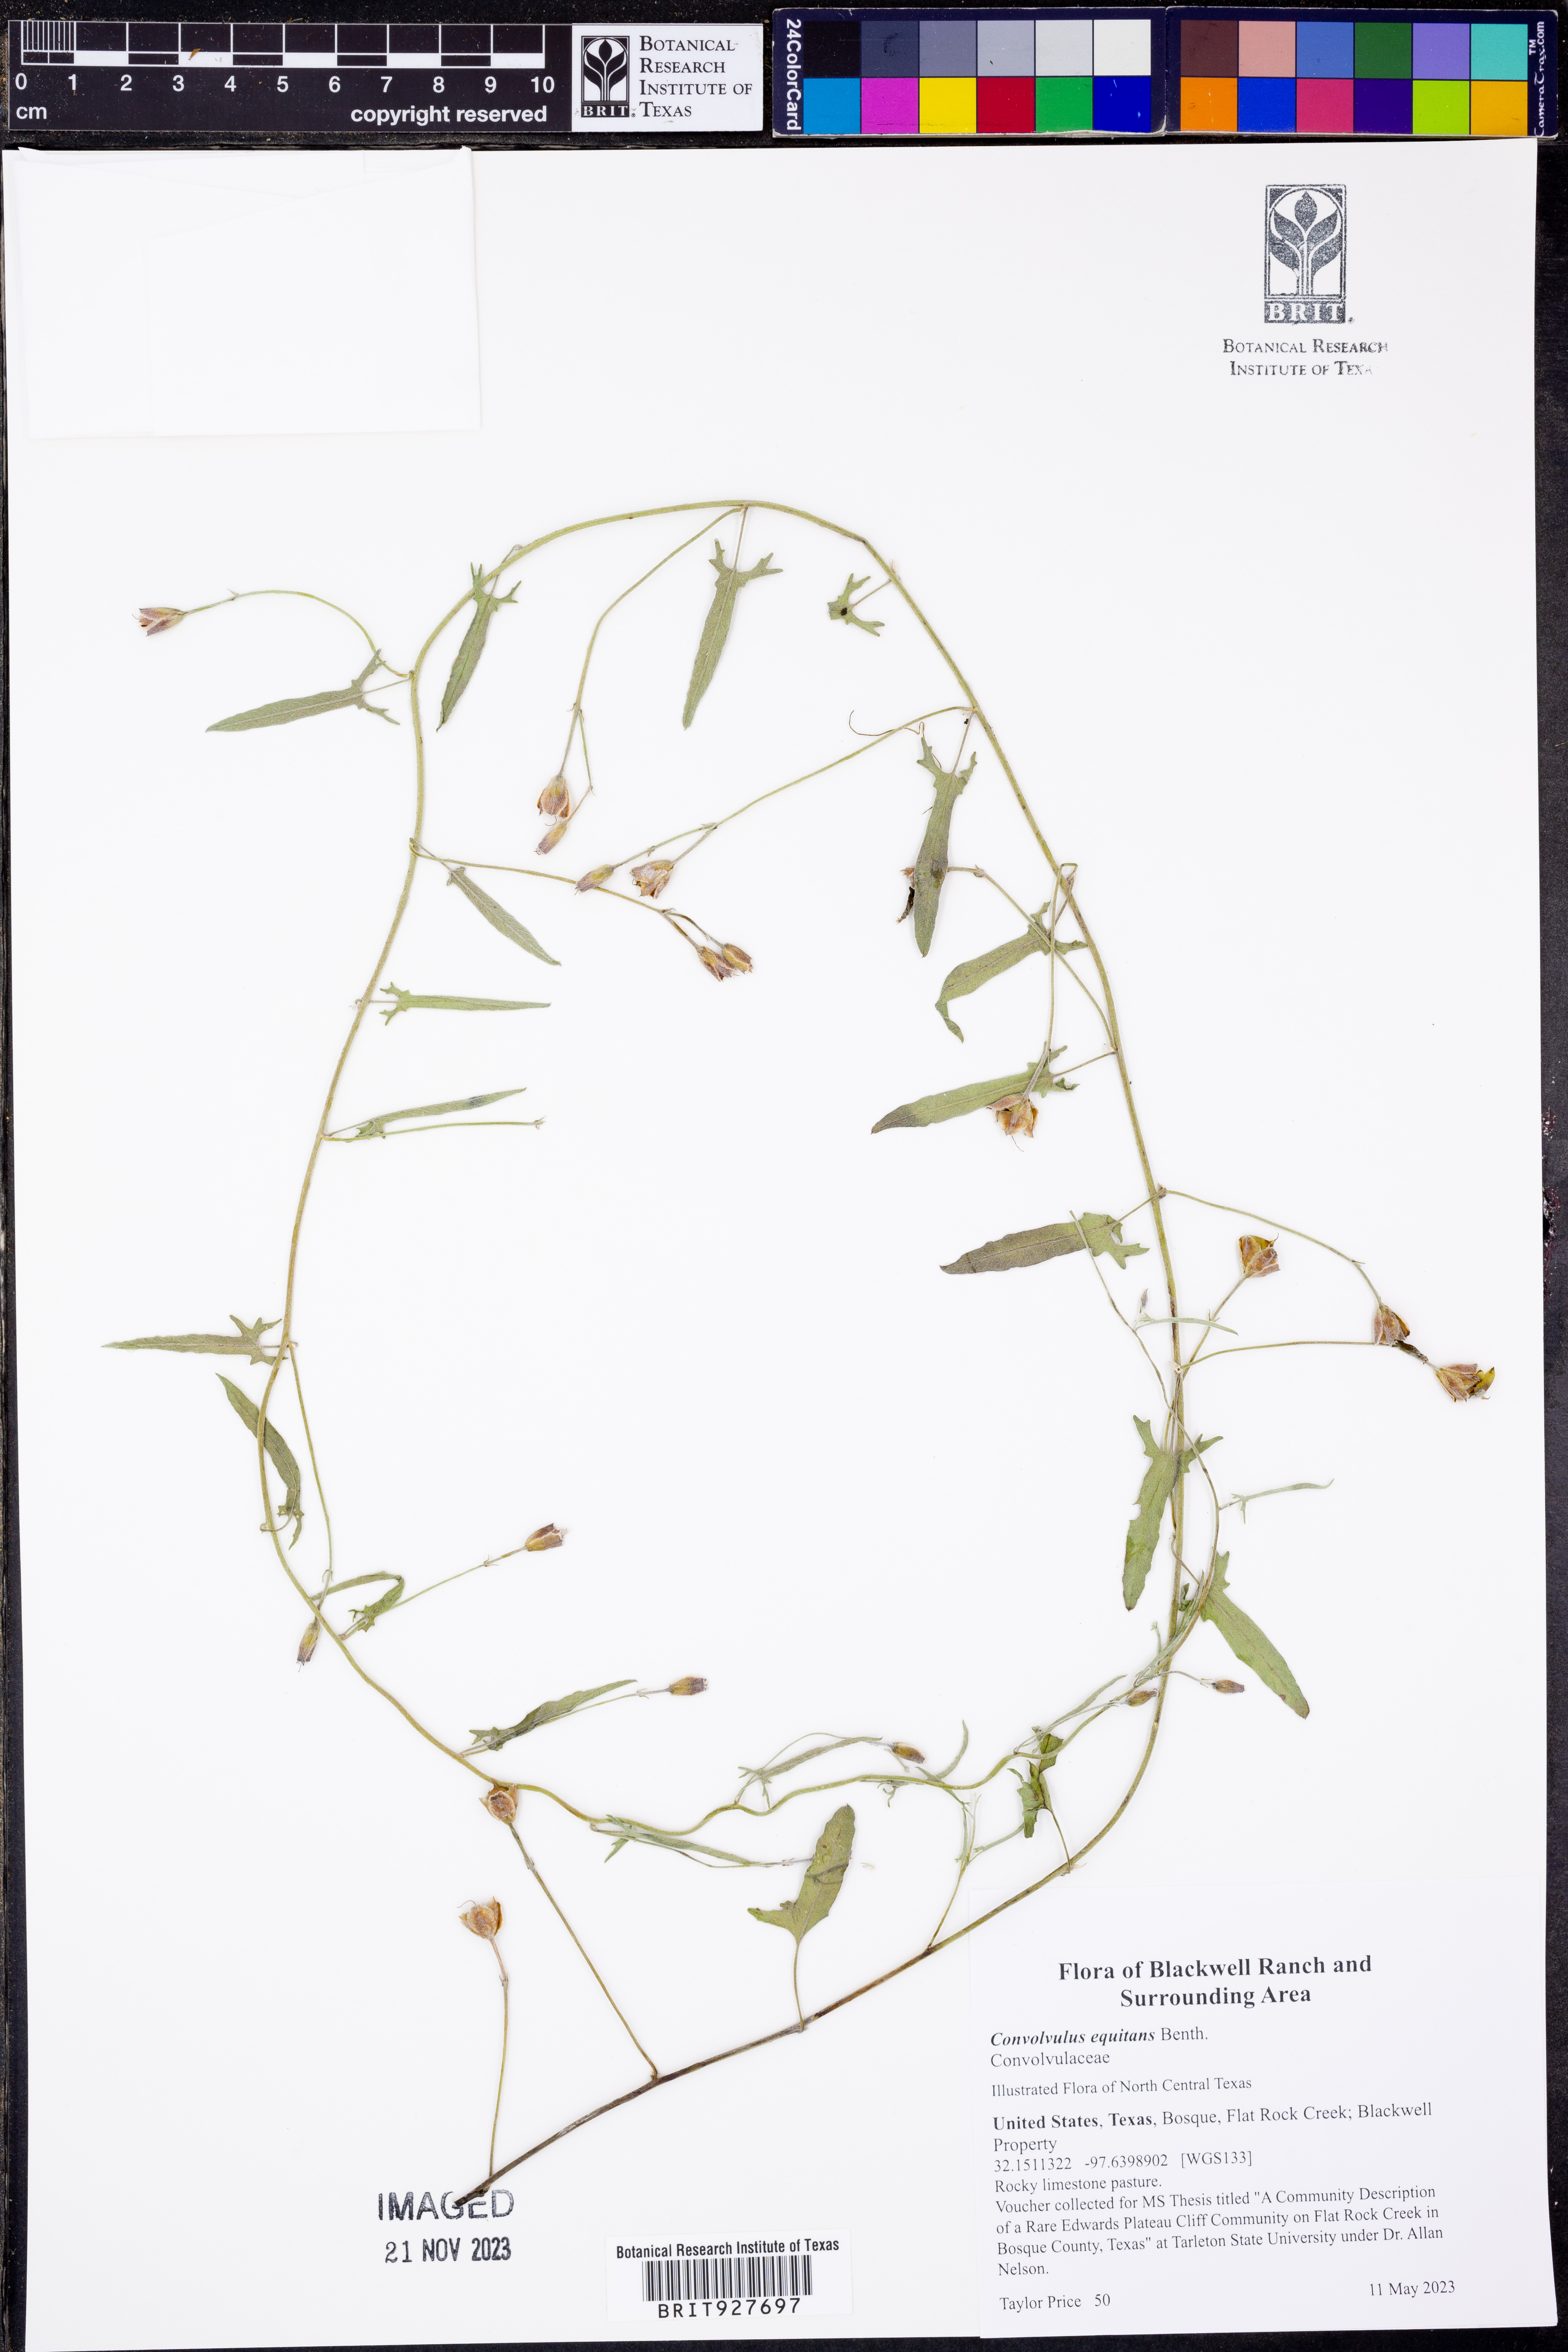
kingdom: Plantae
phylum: Tracheophyta
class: Magnoliopsida
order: Solanales
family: Convolvulaceae
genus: Convolvulus
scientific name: Convolvulus equitans
